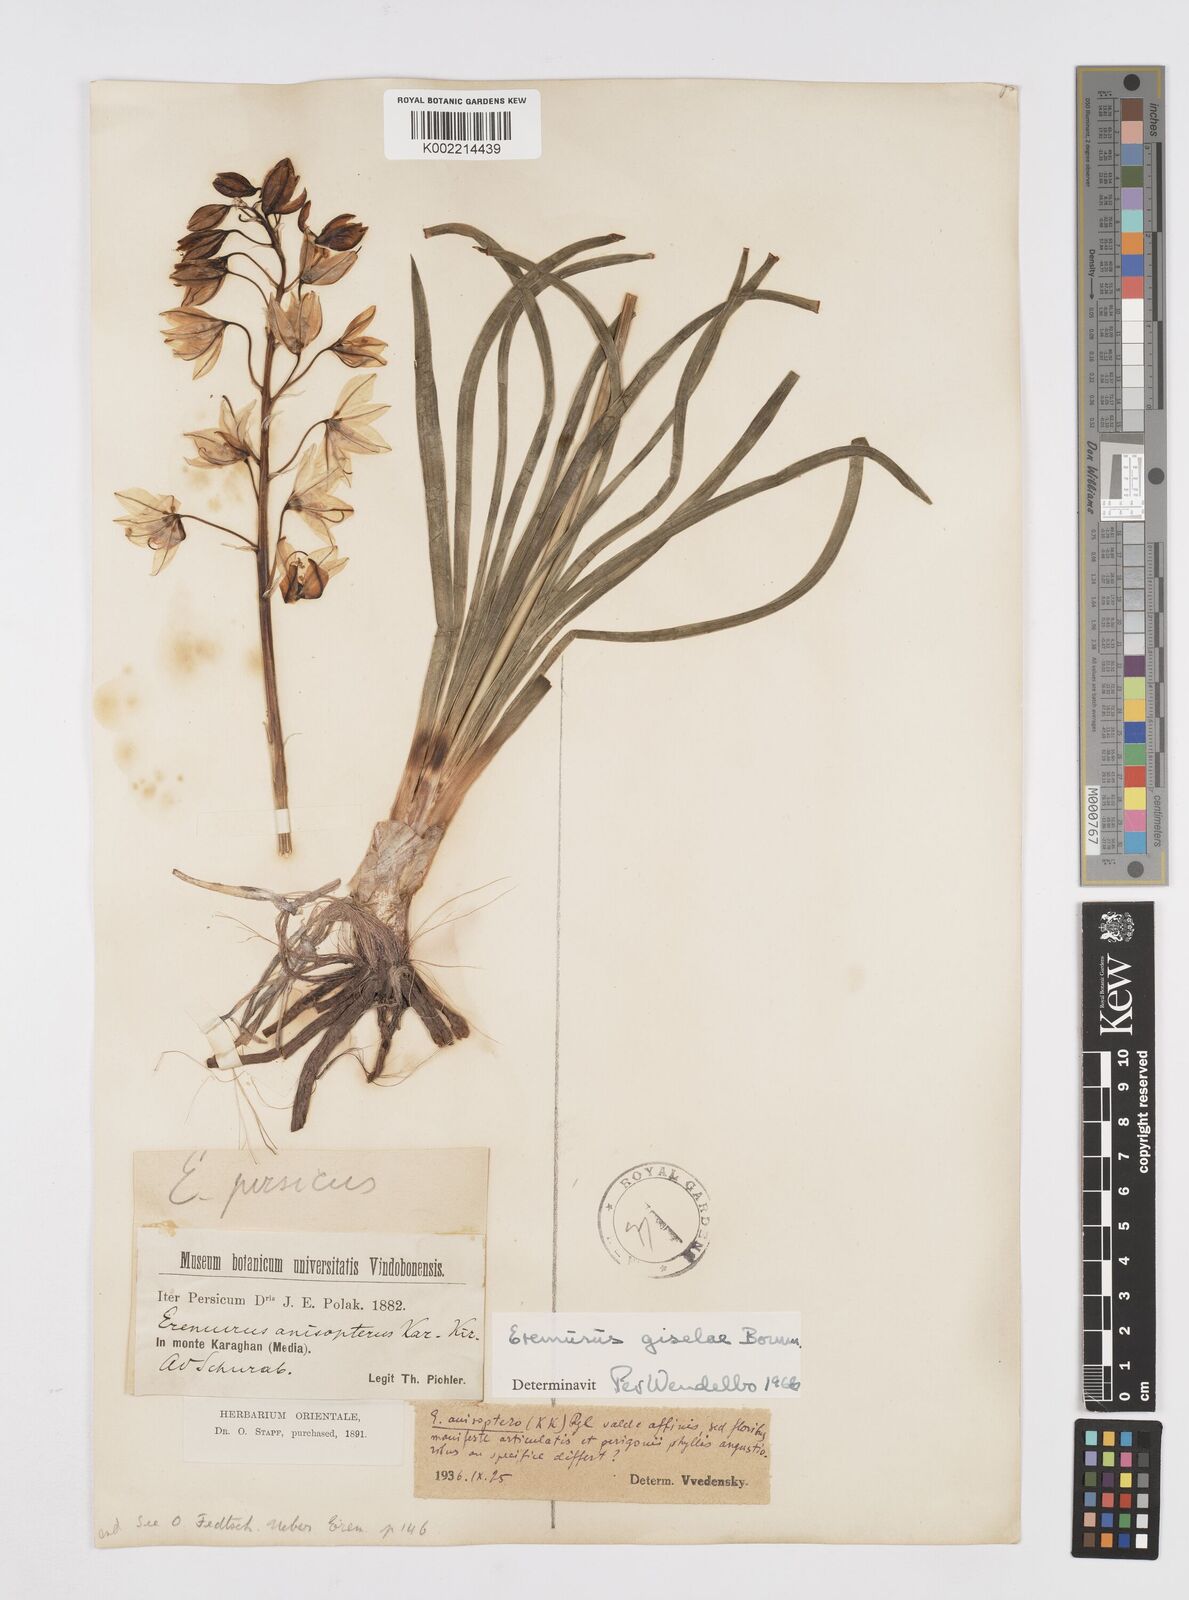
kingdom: Plantae
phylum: Tracheophyta
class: Liliopsida
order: Asparagales
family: Asphodelaceae
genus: Eremurus
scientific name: Eremurus kopet-daghensis
